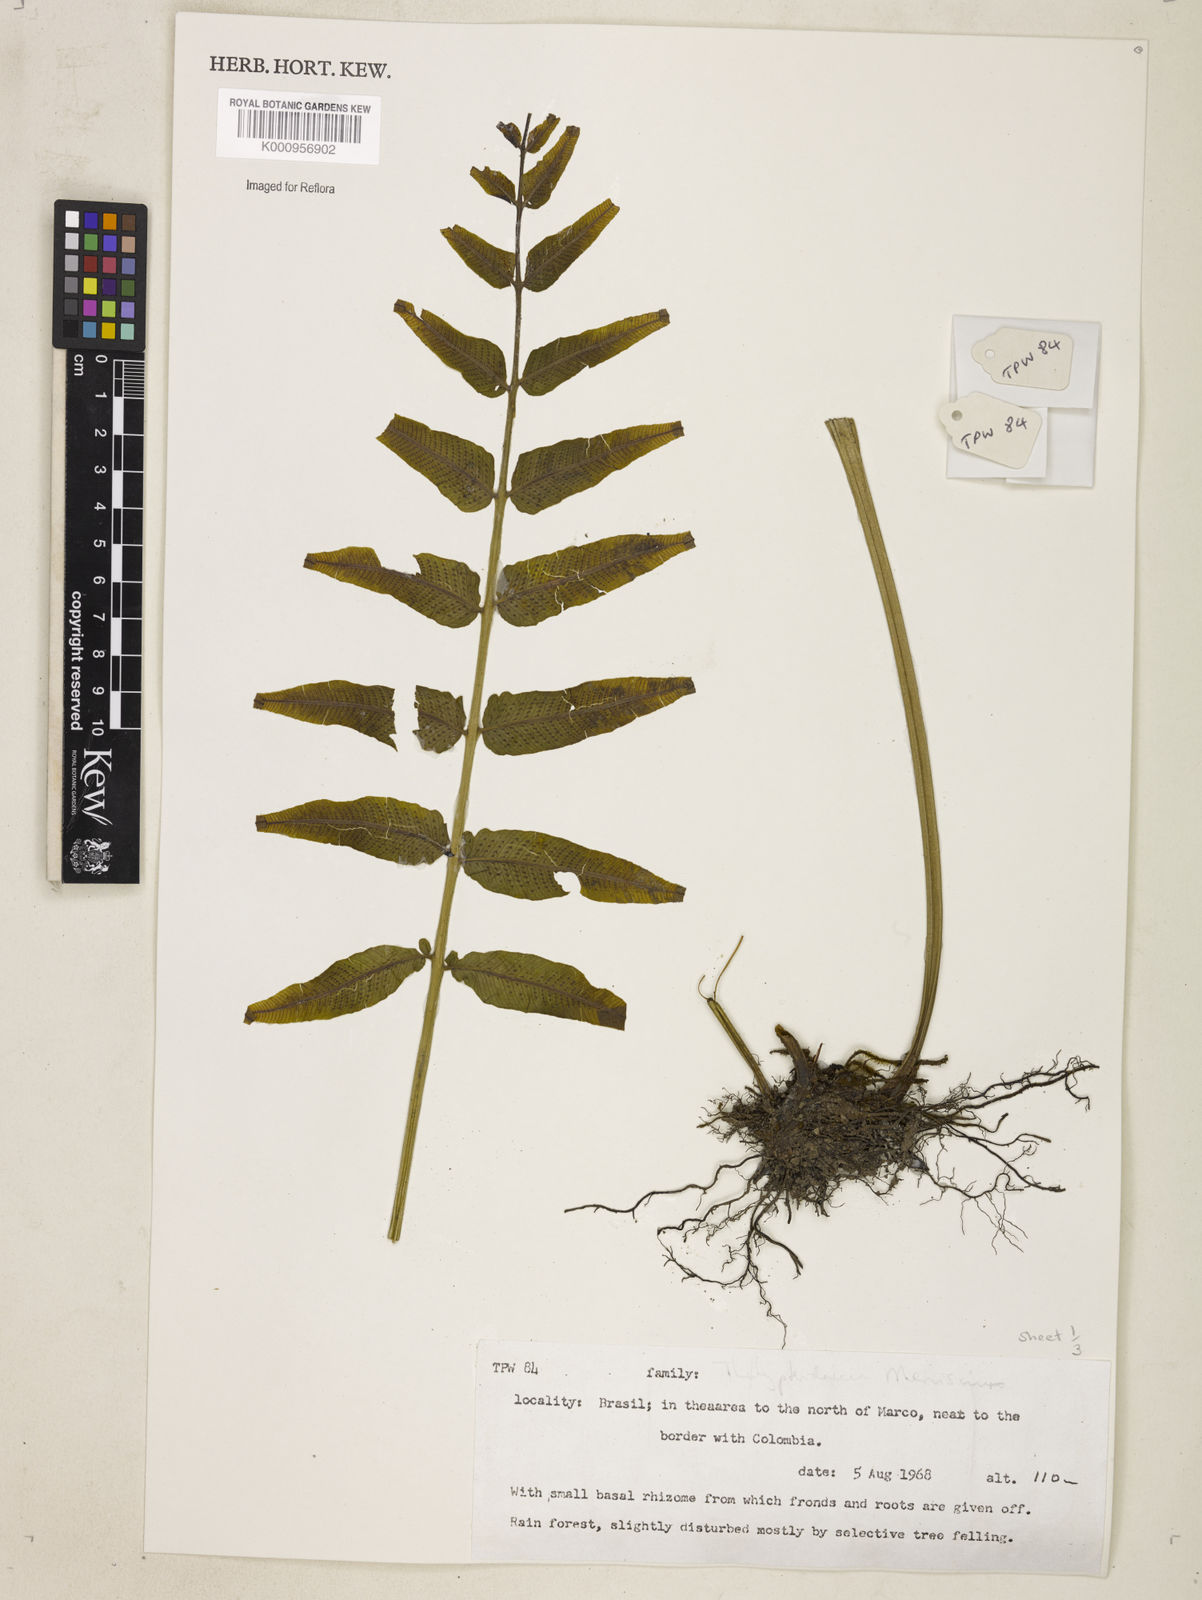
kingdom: Plantae
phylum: Tracheophyta
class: Polypodiopsida
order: Polypodiales
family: Thelypteridaceae
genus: Meniscium
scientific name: Meniscium
